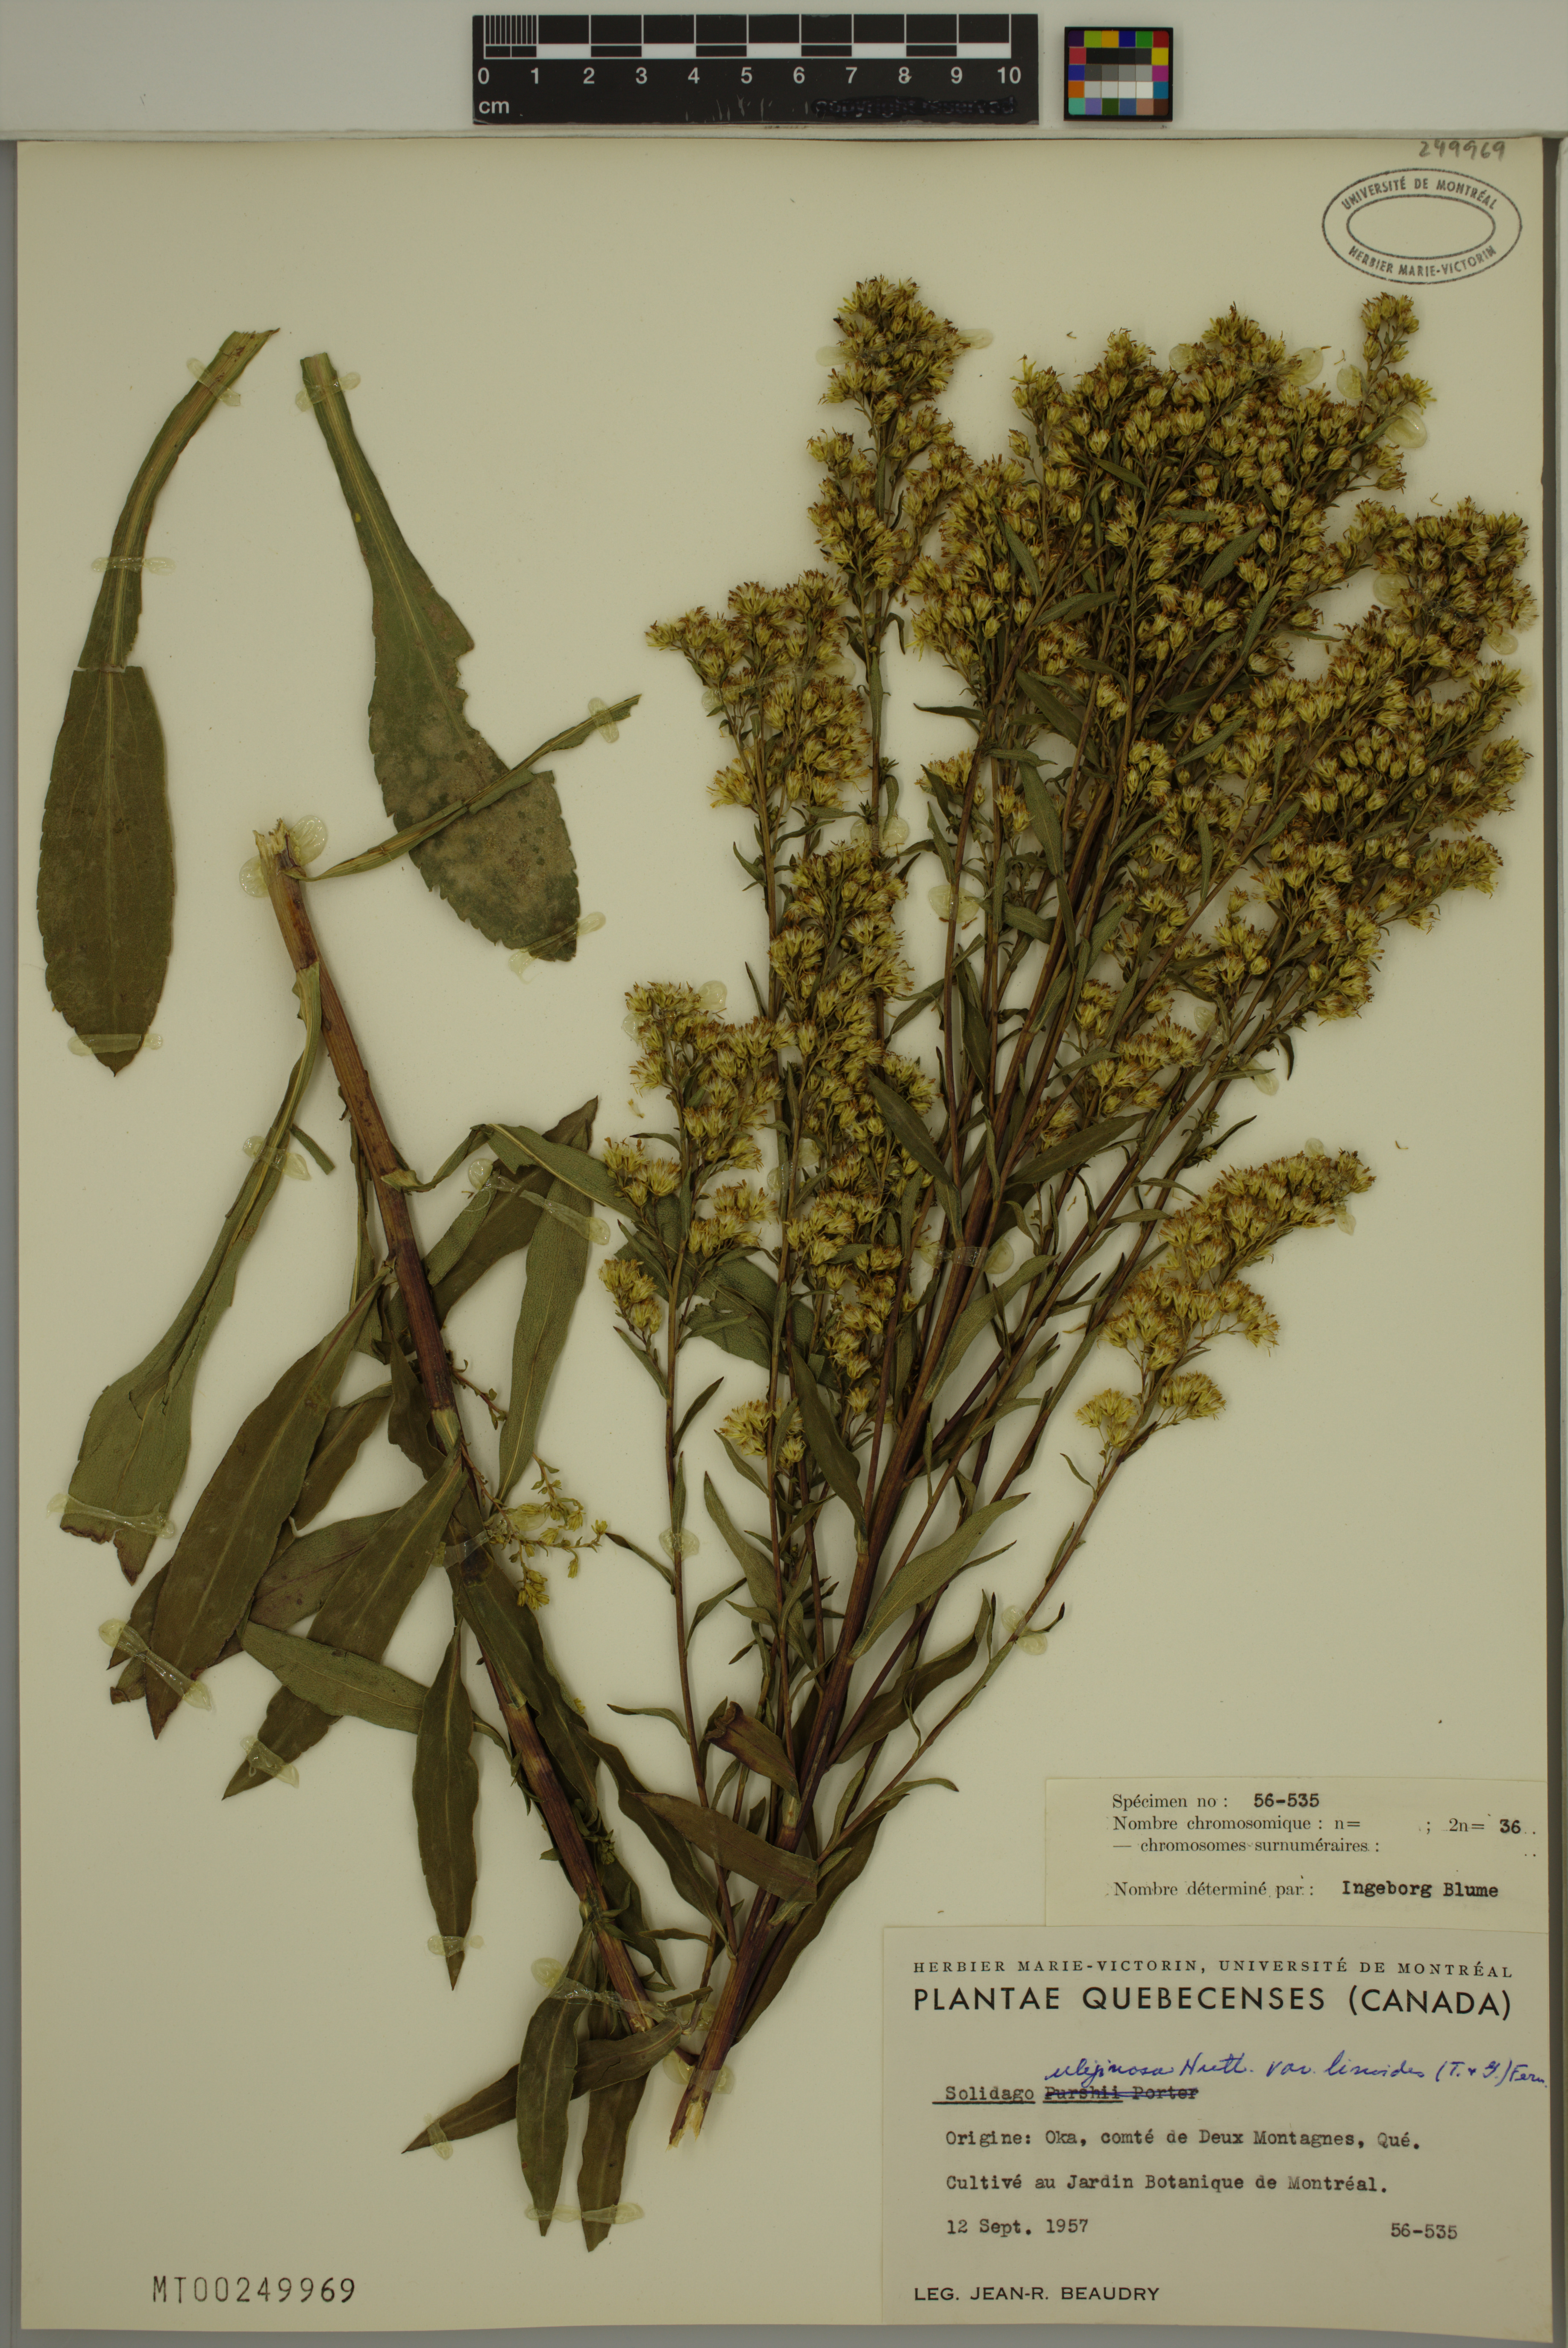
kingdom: Plantae
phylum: Tracheophyta
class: Magnoliopsida
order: Asterales
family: Asteraceae
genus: Solidago
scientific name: Solidago uliginosa
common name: Bog goldenrod
